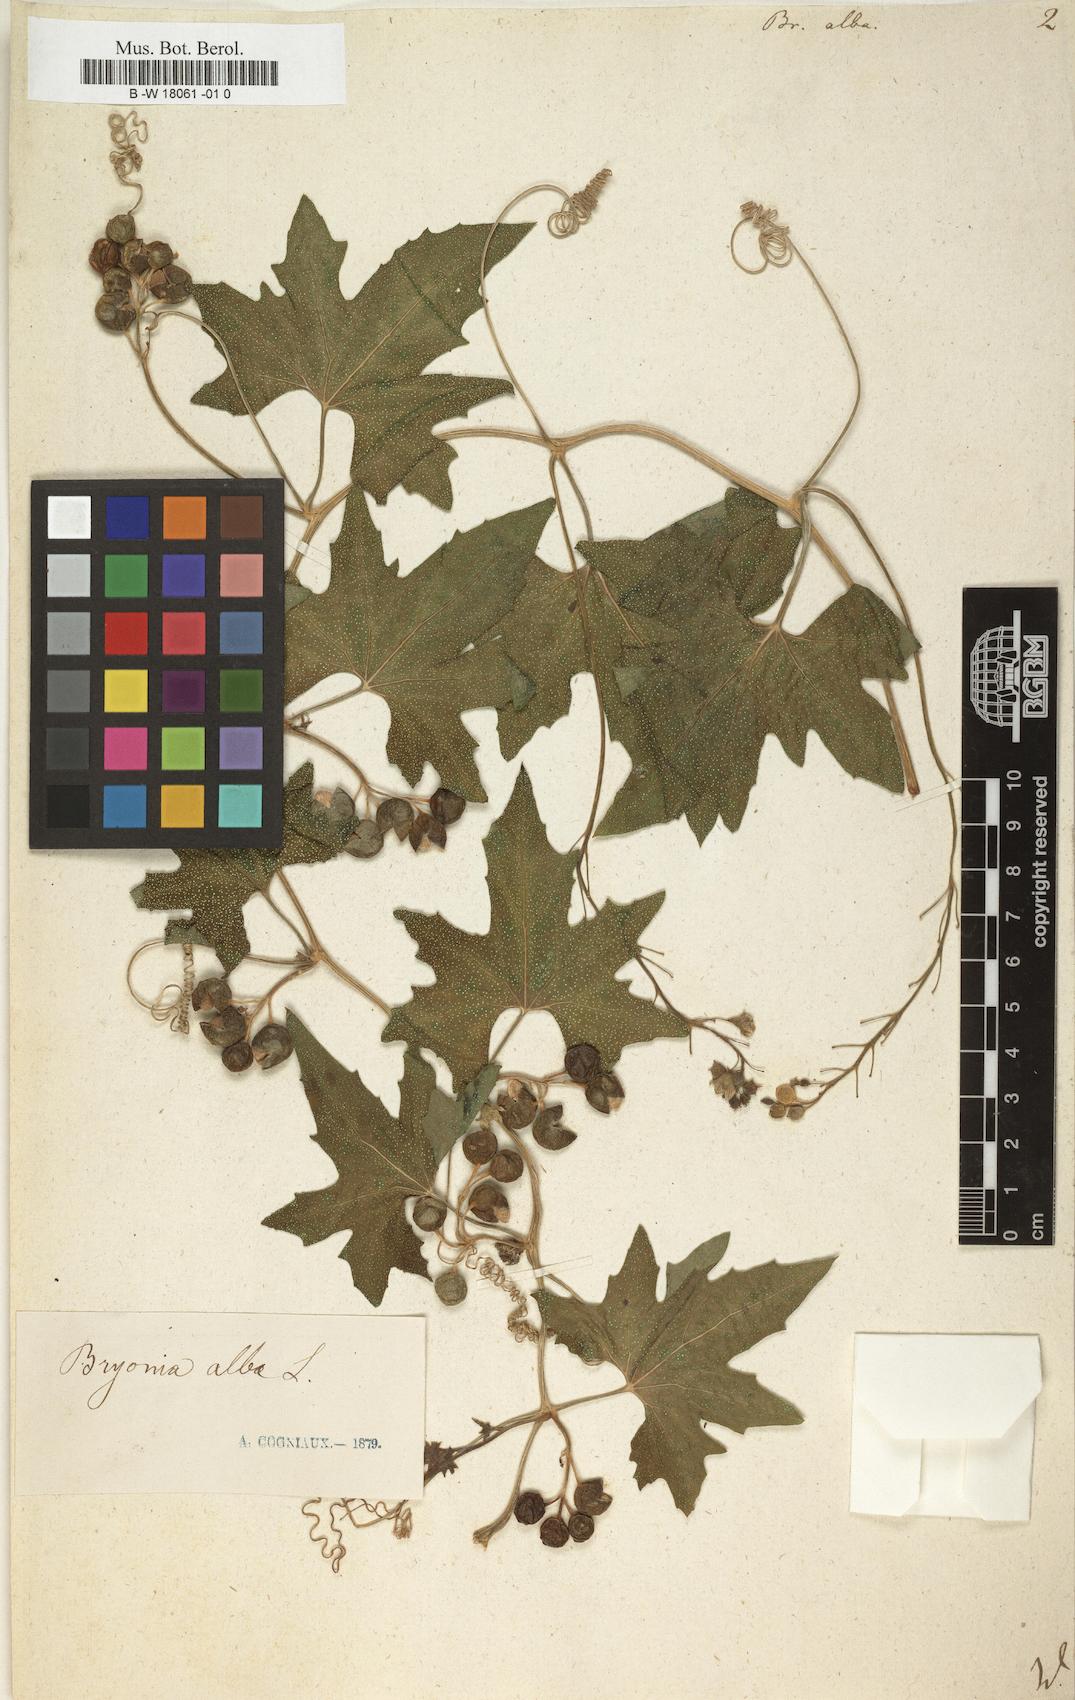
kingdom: Plantae
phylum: Tracheophyta
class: Magnoliopsida
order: Cucurbitales
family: Cucurbitaceae
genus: Bryonia
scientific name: Bryonia alba
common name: White bryony
